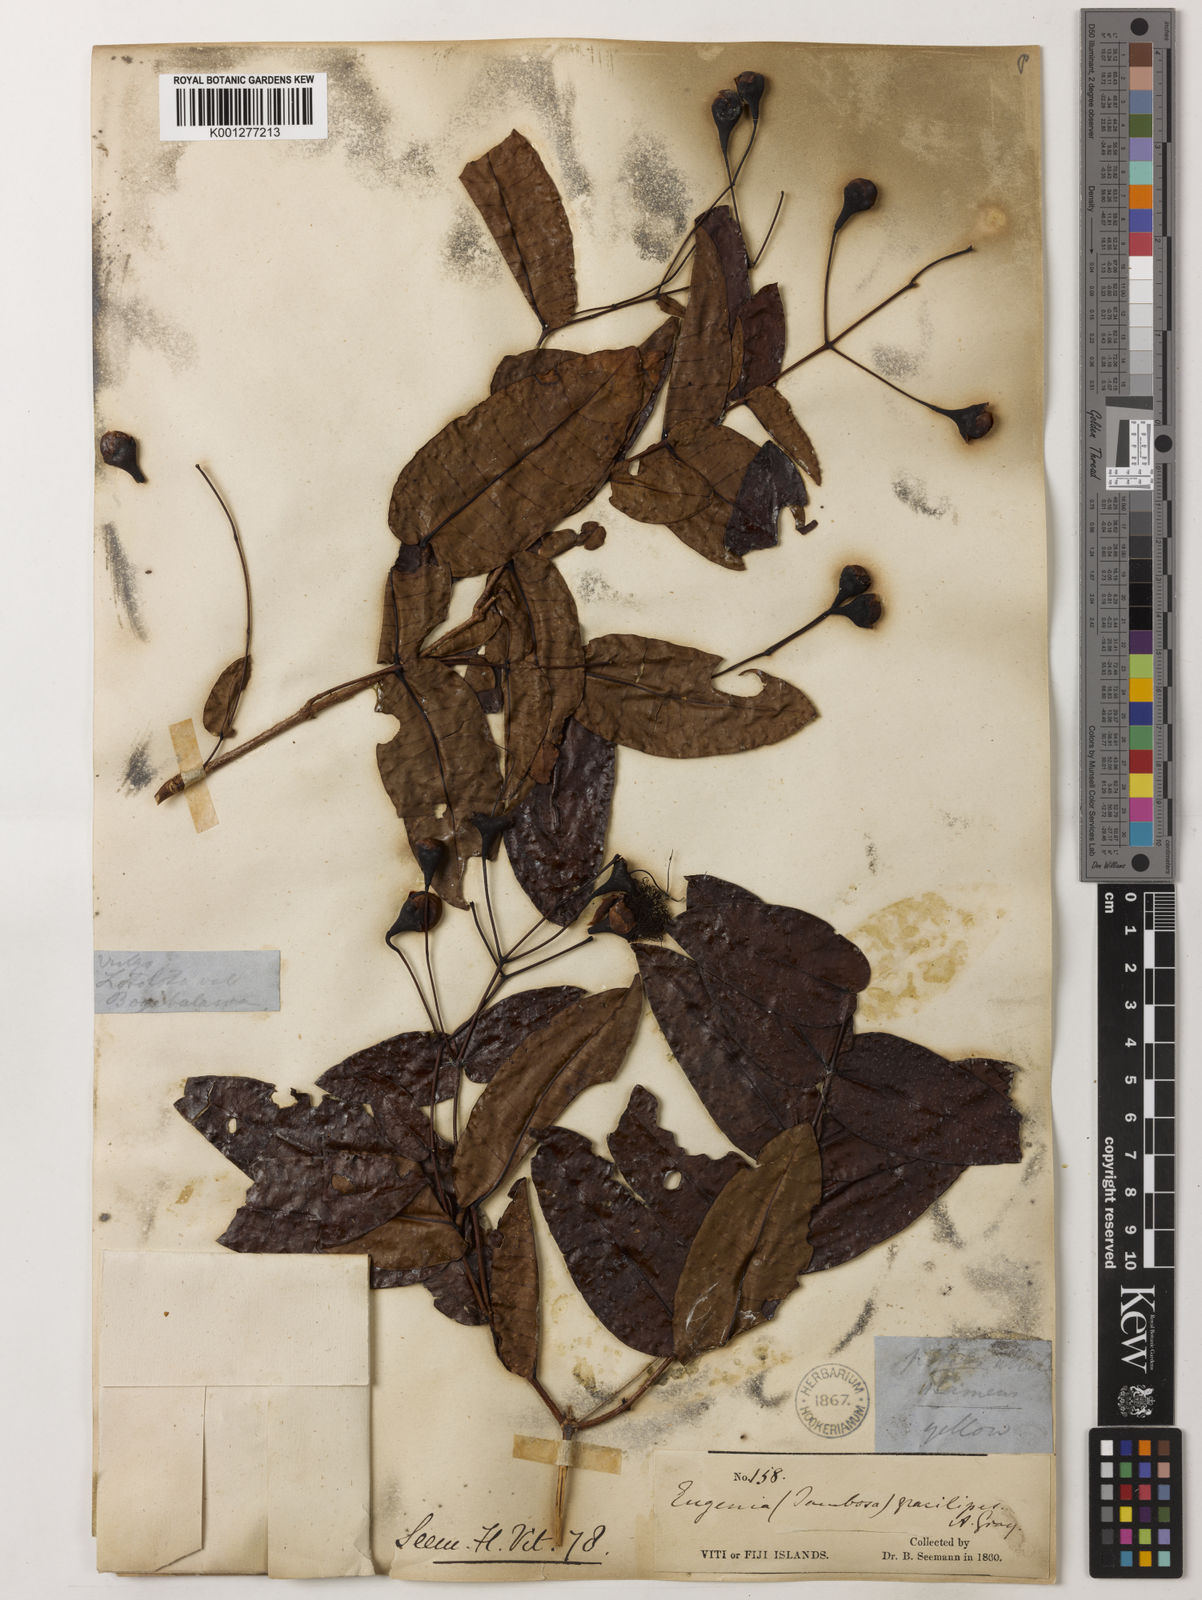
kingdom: Plantae
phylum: Tracheophyta
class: Magnoliopsida
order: Myrtales
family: Myrtaceae
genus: Syzygium
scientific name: Syzygium gracilipes
